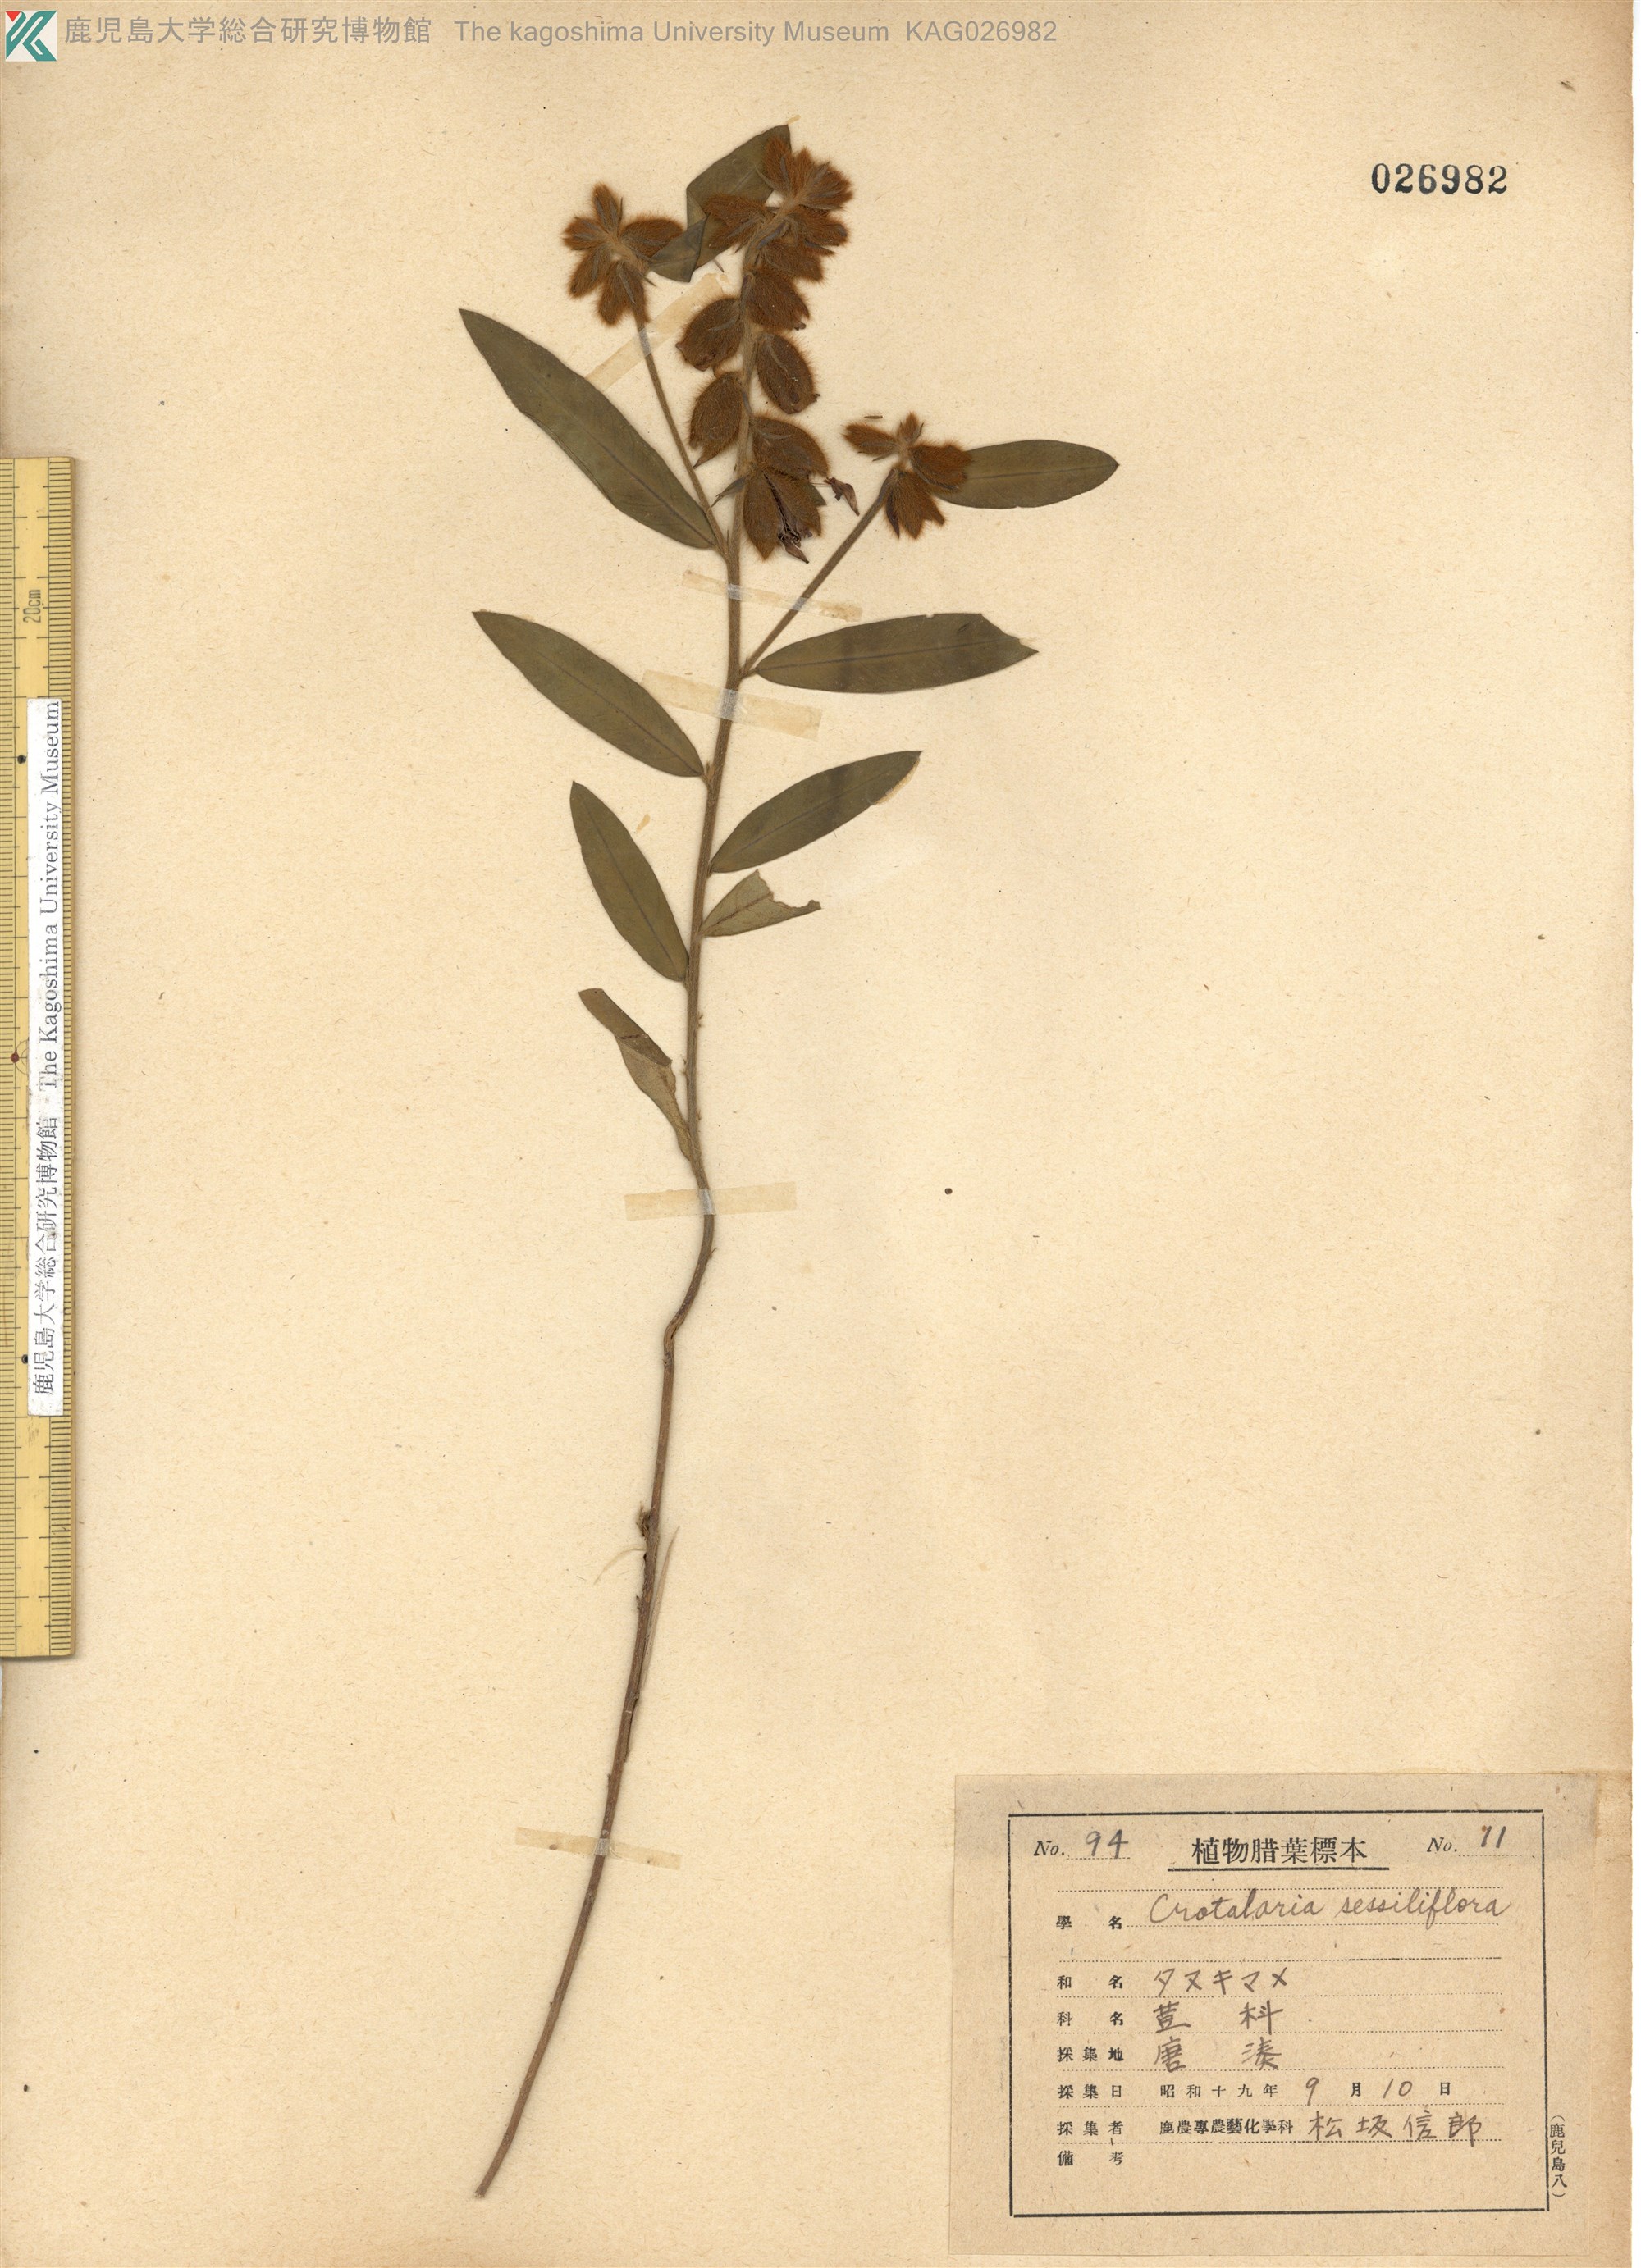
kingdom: Plantae
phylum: Tracheophyta
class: Magnoliopsida
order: Fabales
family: Fabaceae
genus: Crotalaria
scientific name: Crotalaria sessiliflora
